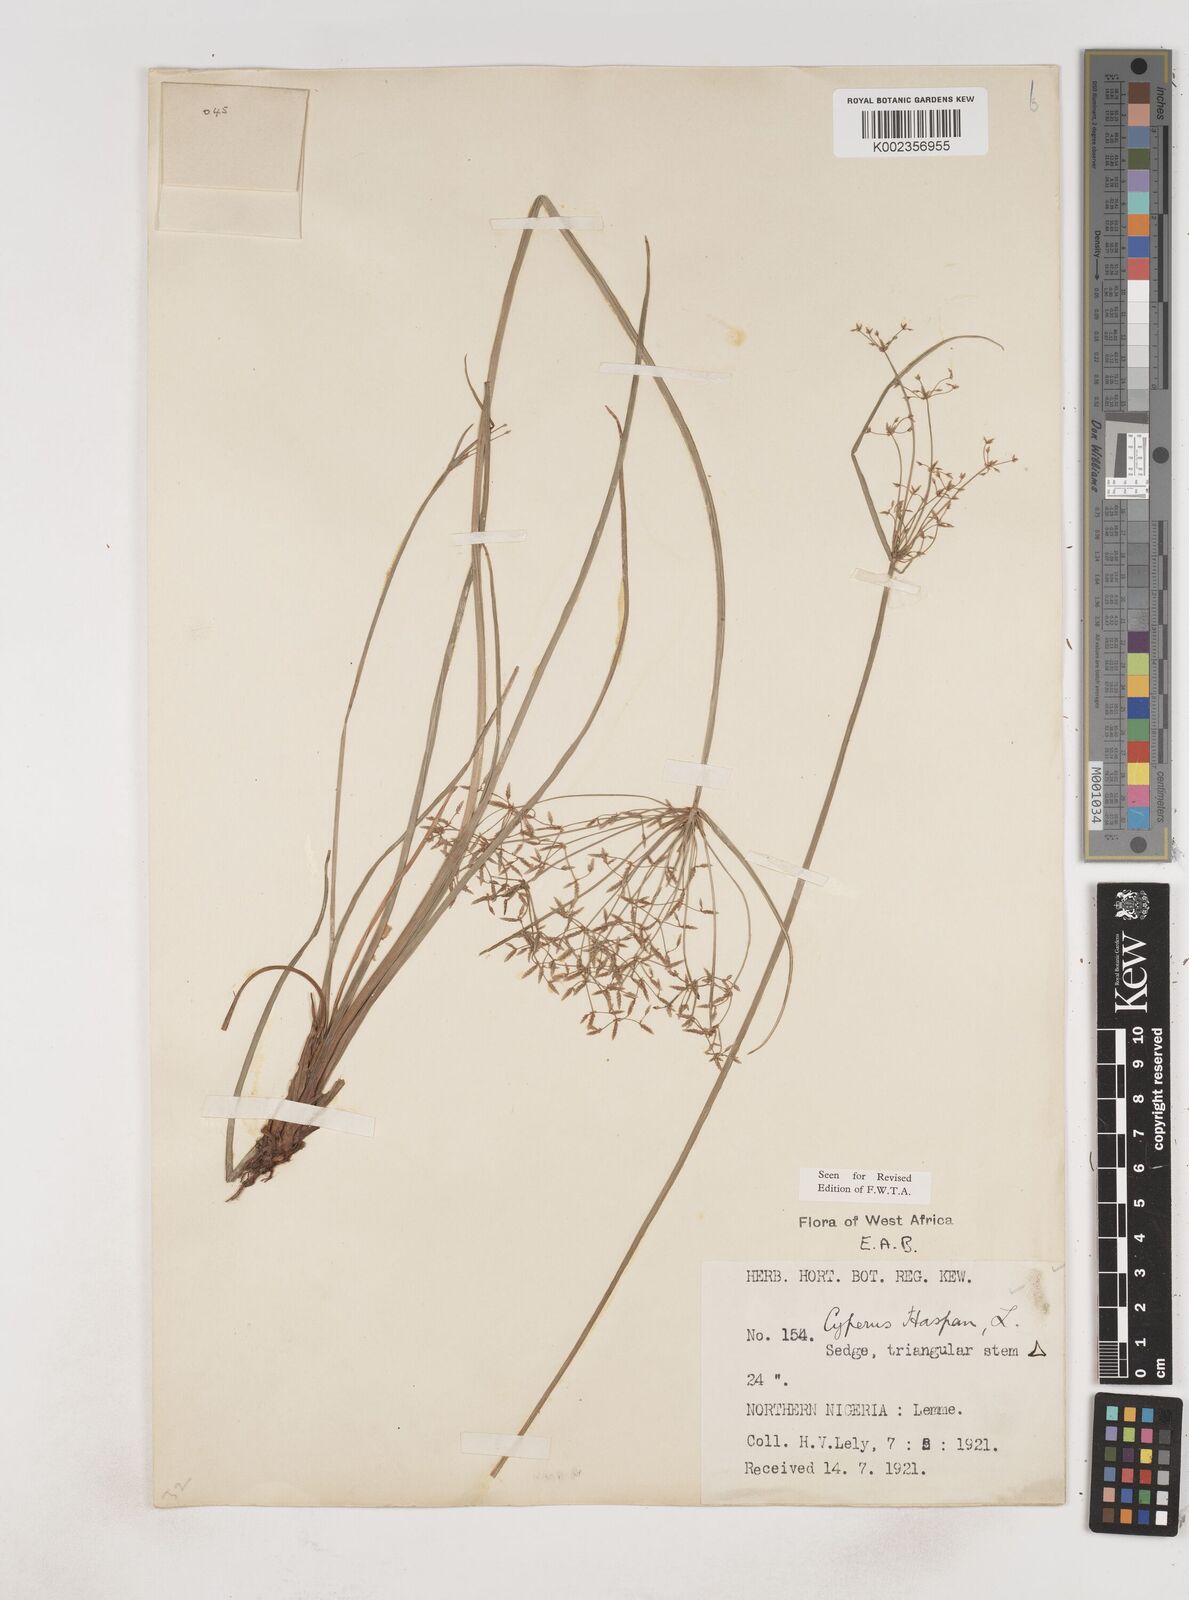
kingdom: Plantae
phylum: Tracheophyta
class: Liliopsida
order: Poales
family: Cyperaceae
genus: Cyperus
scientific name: Cyperus haspan
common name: Haspan flatsedge
